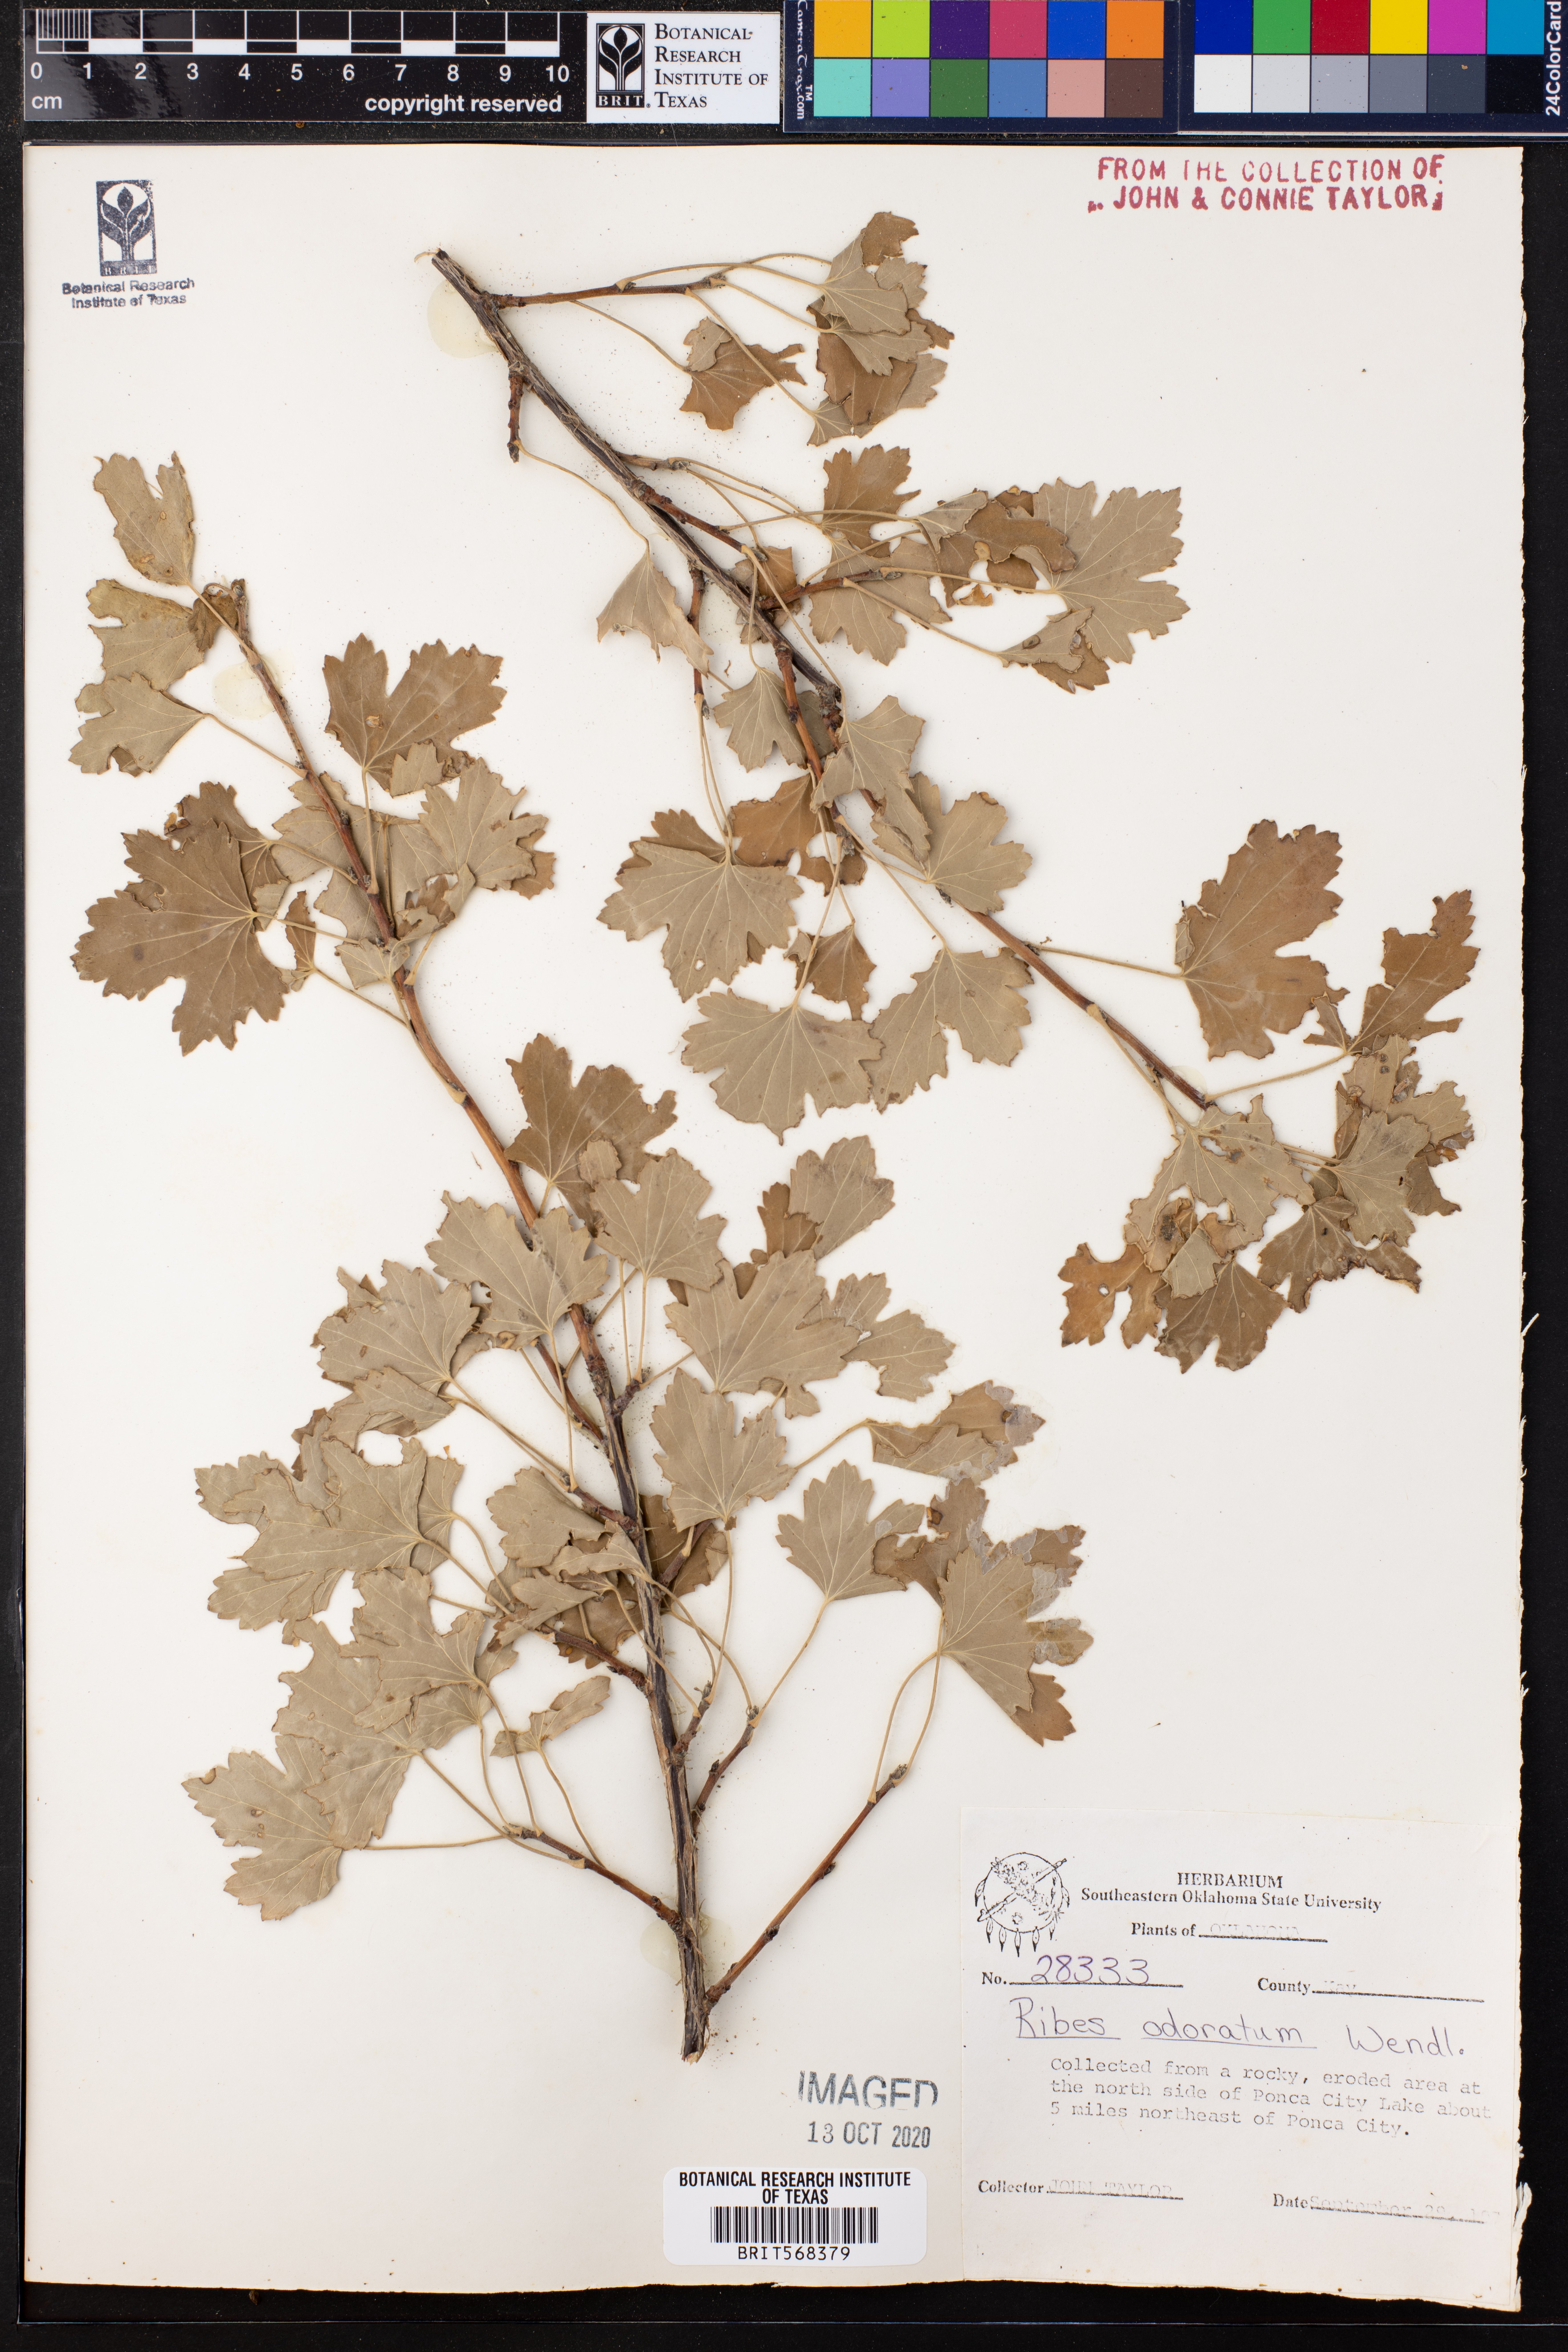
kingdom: Plantae
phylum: Tracheophyta
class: Magnoliopsida
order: Saxifragales
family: Grossulariaceae
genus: Ribes
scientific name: Ribes aureum
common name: Golden currant
